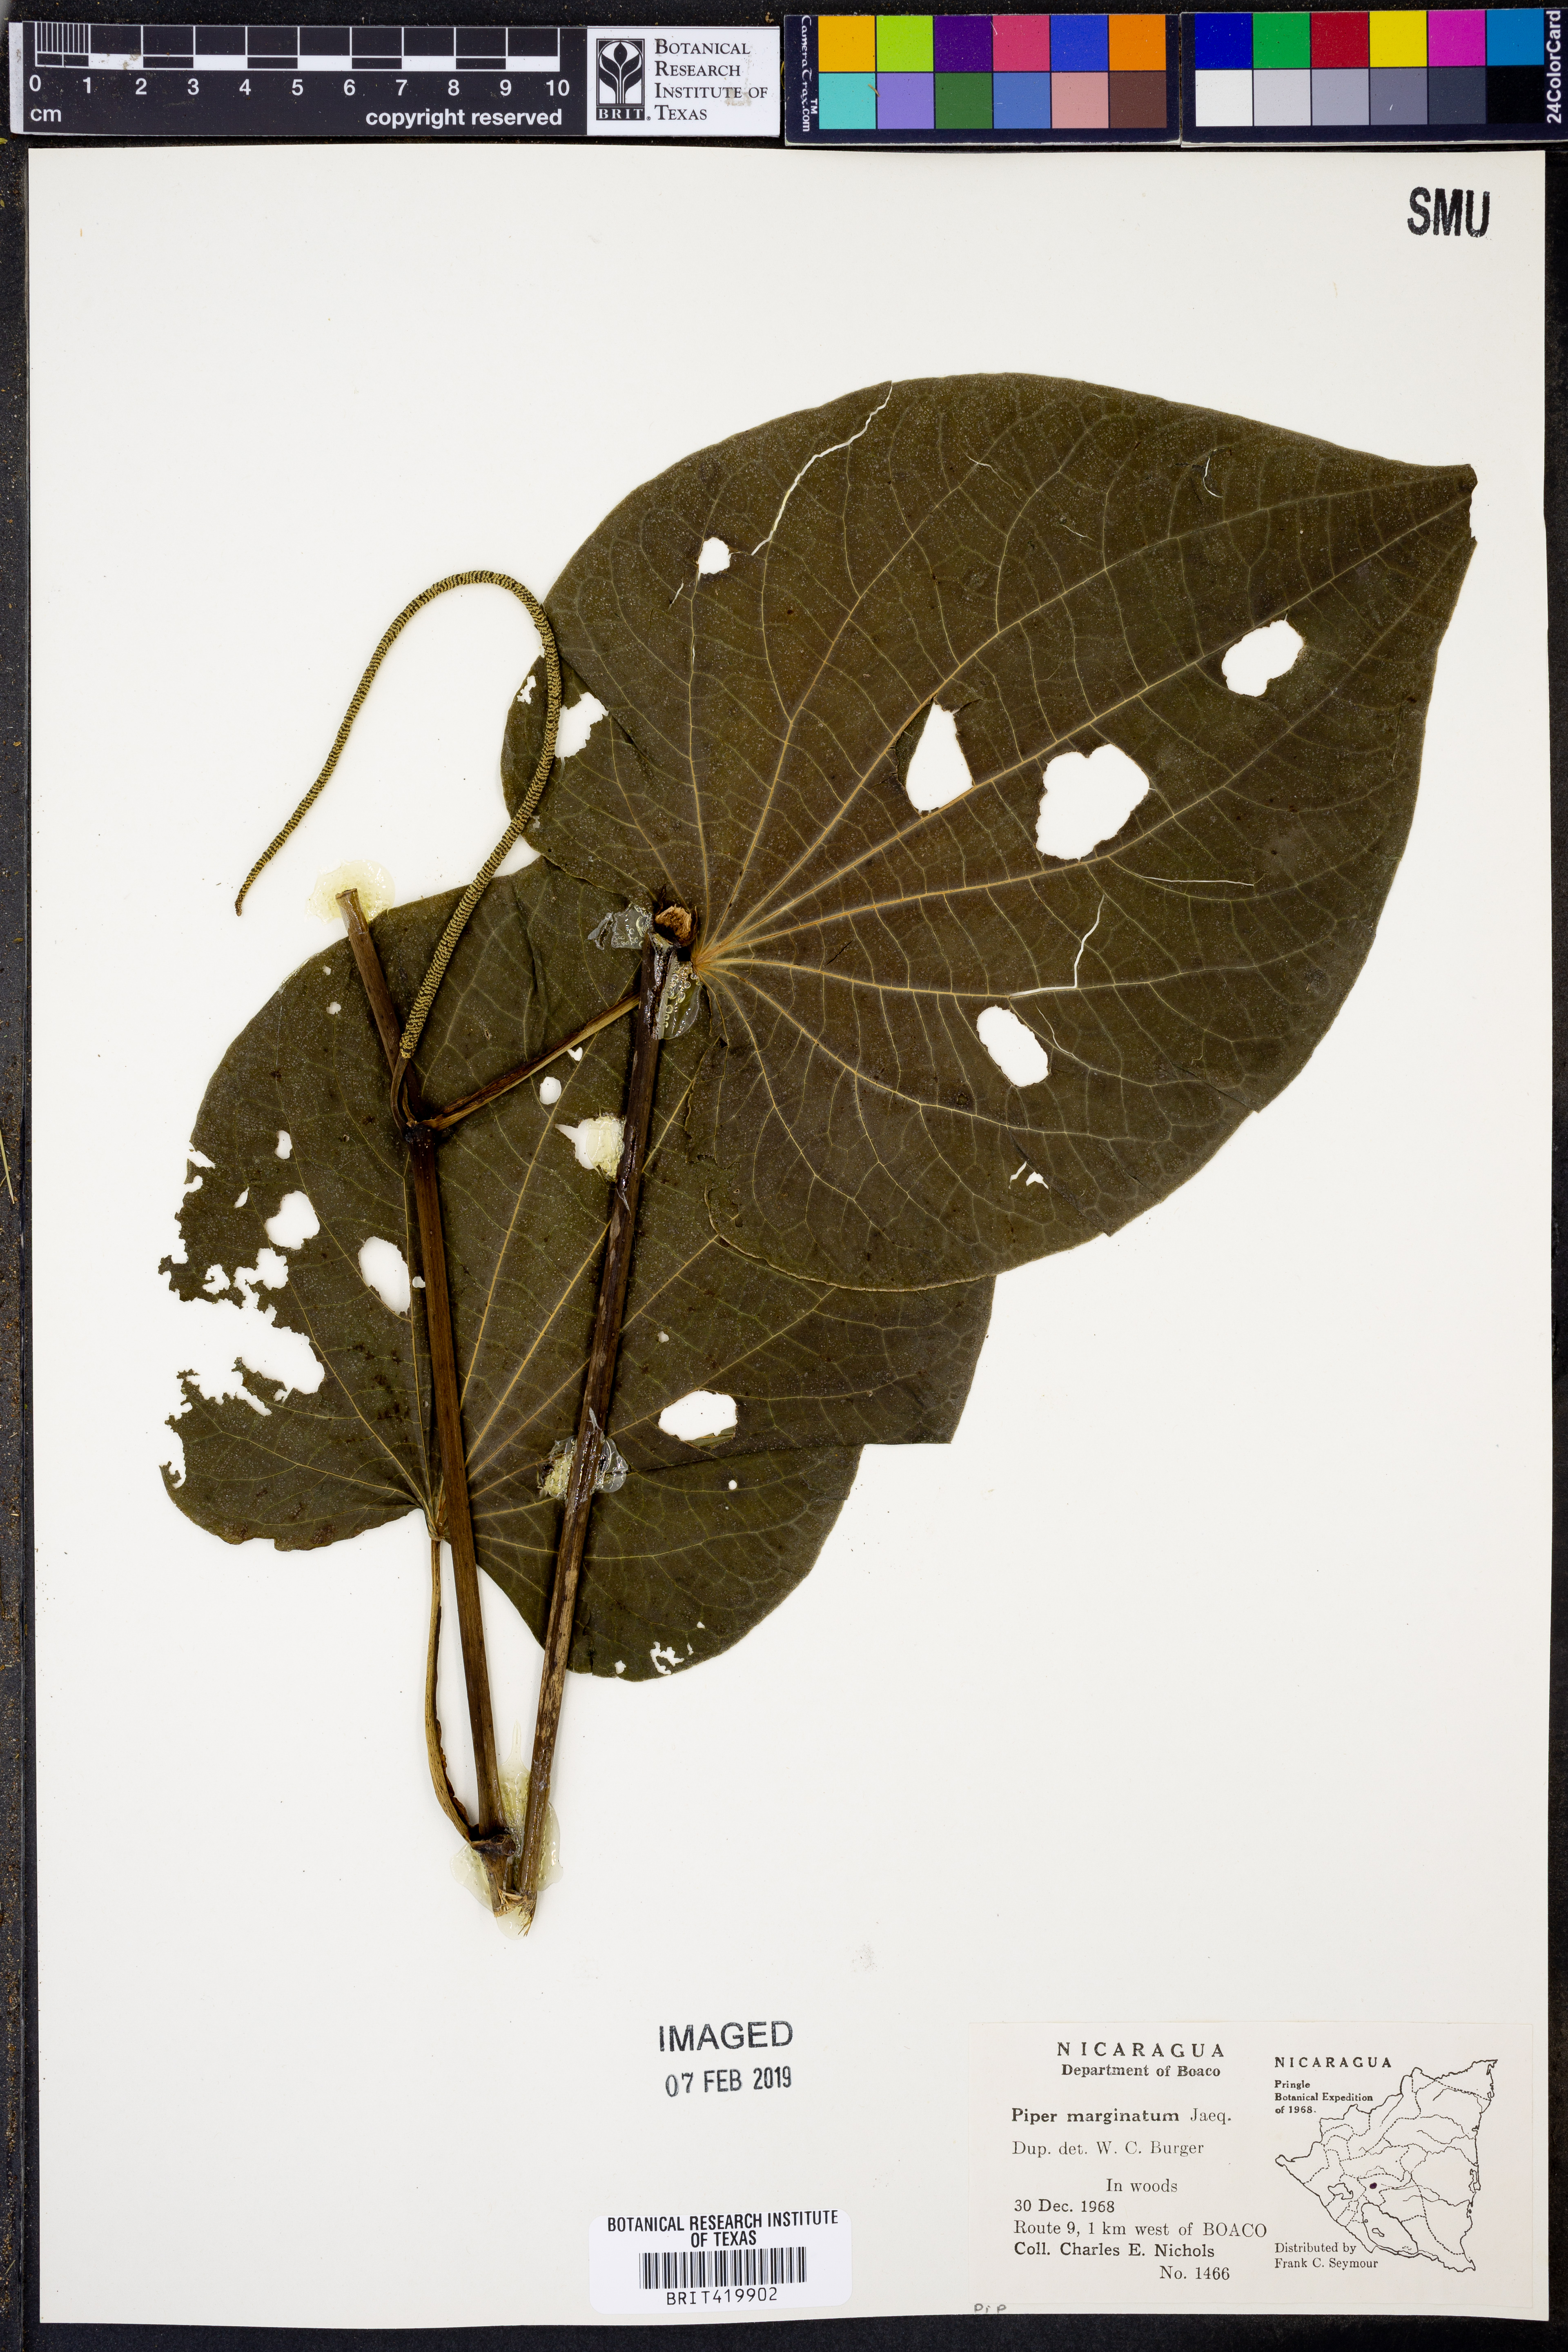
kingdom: Plantae
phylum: Tracheophyta
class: Magnoliopsida
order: Piperales
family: Piperaceae
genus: Piper
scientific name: Piper marginatum
